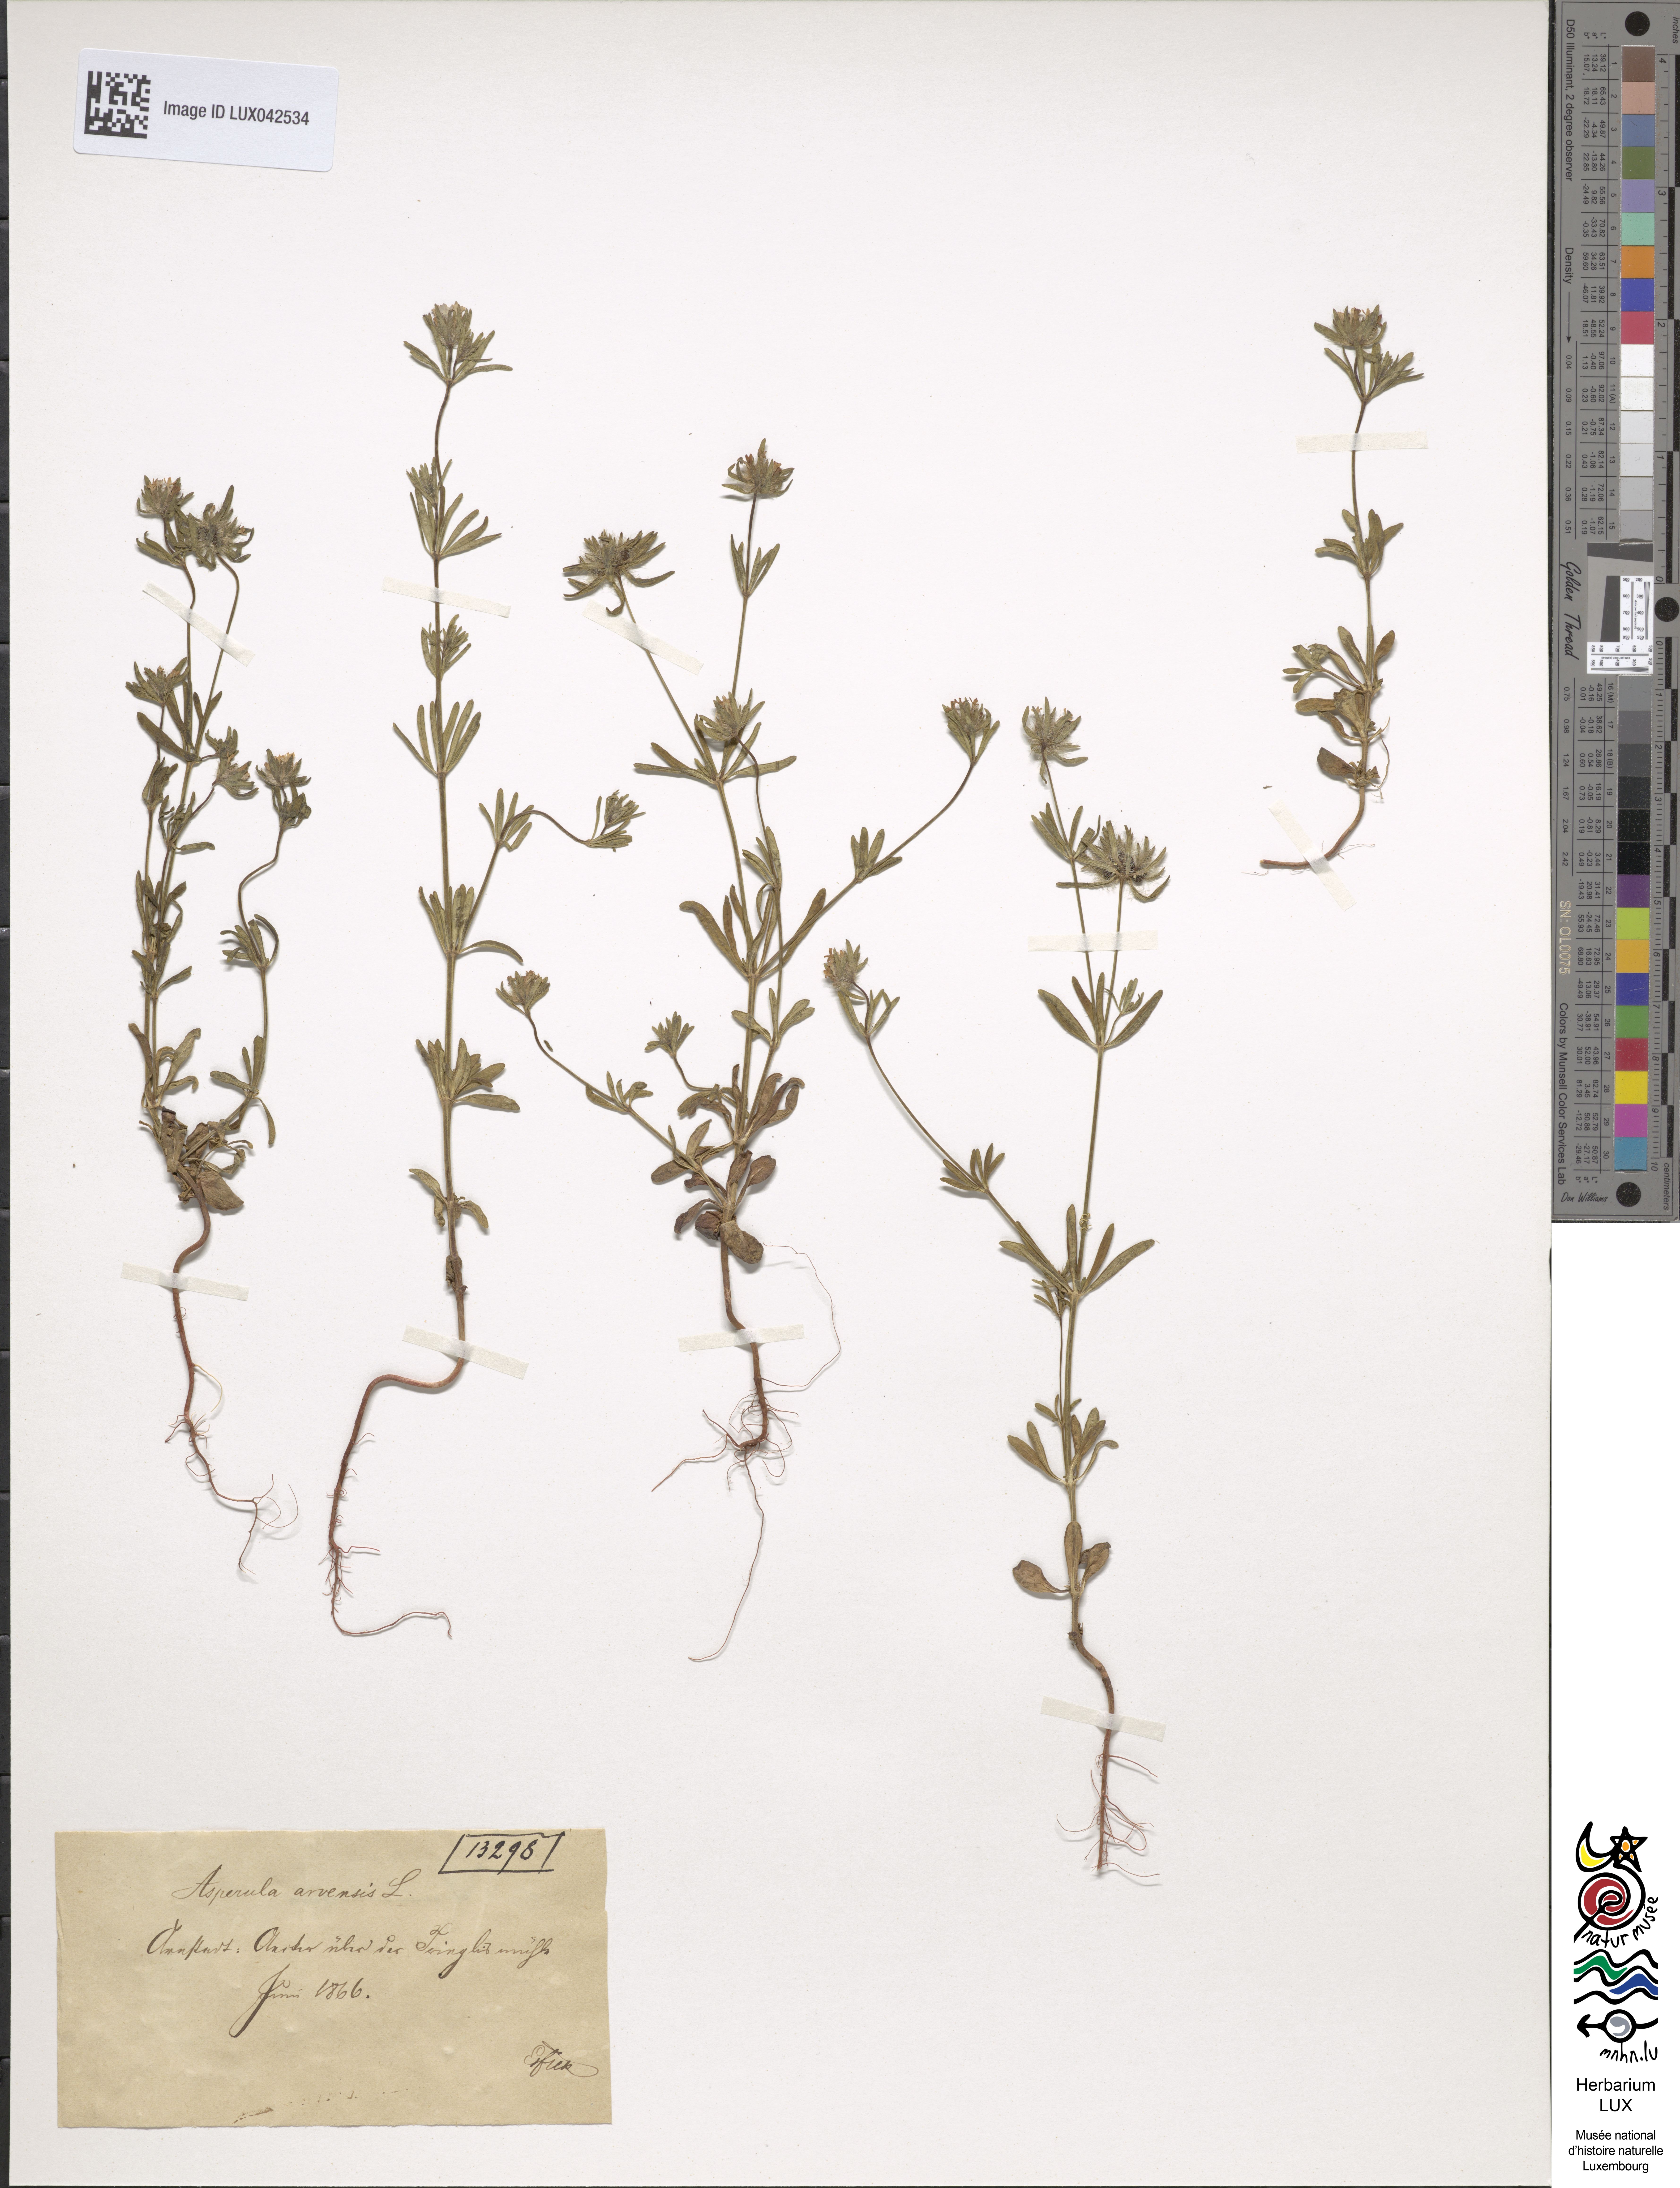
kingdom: Plantae
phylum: Tracheophyta
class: Magnoliopsida
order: Gentianales
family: Rubiaceae
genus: Asperula
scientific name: Asperula arvensis
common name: Blue woodruff
